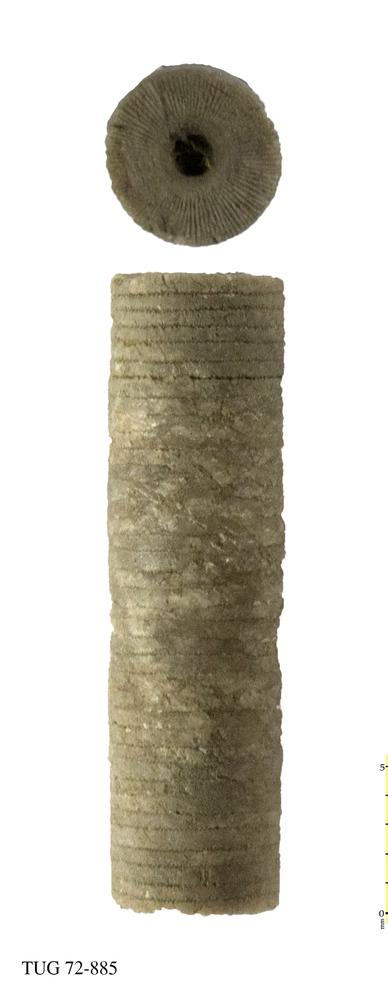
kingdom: Animalia
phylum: Echinodermata
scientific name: Echinodermata
